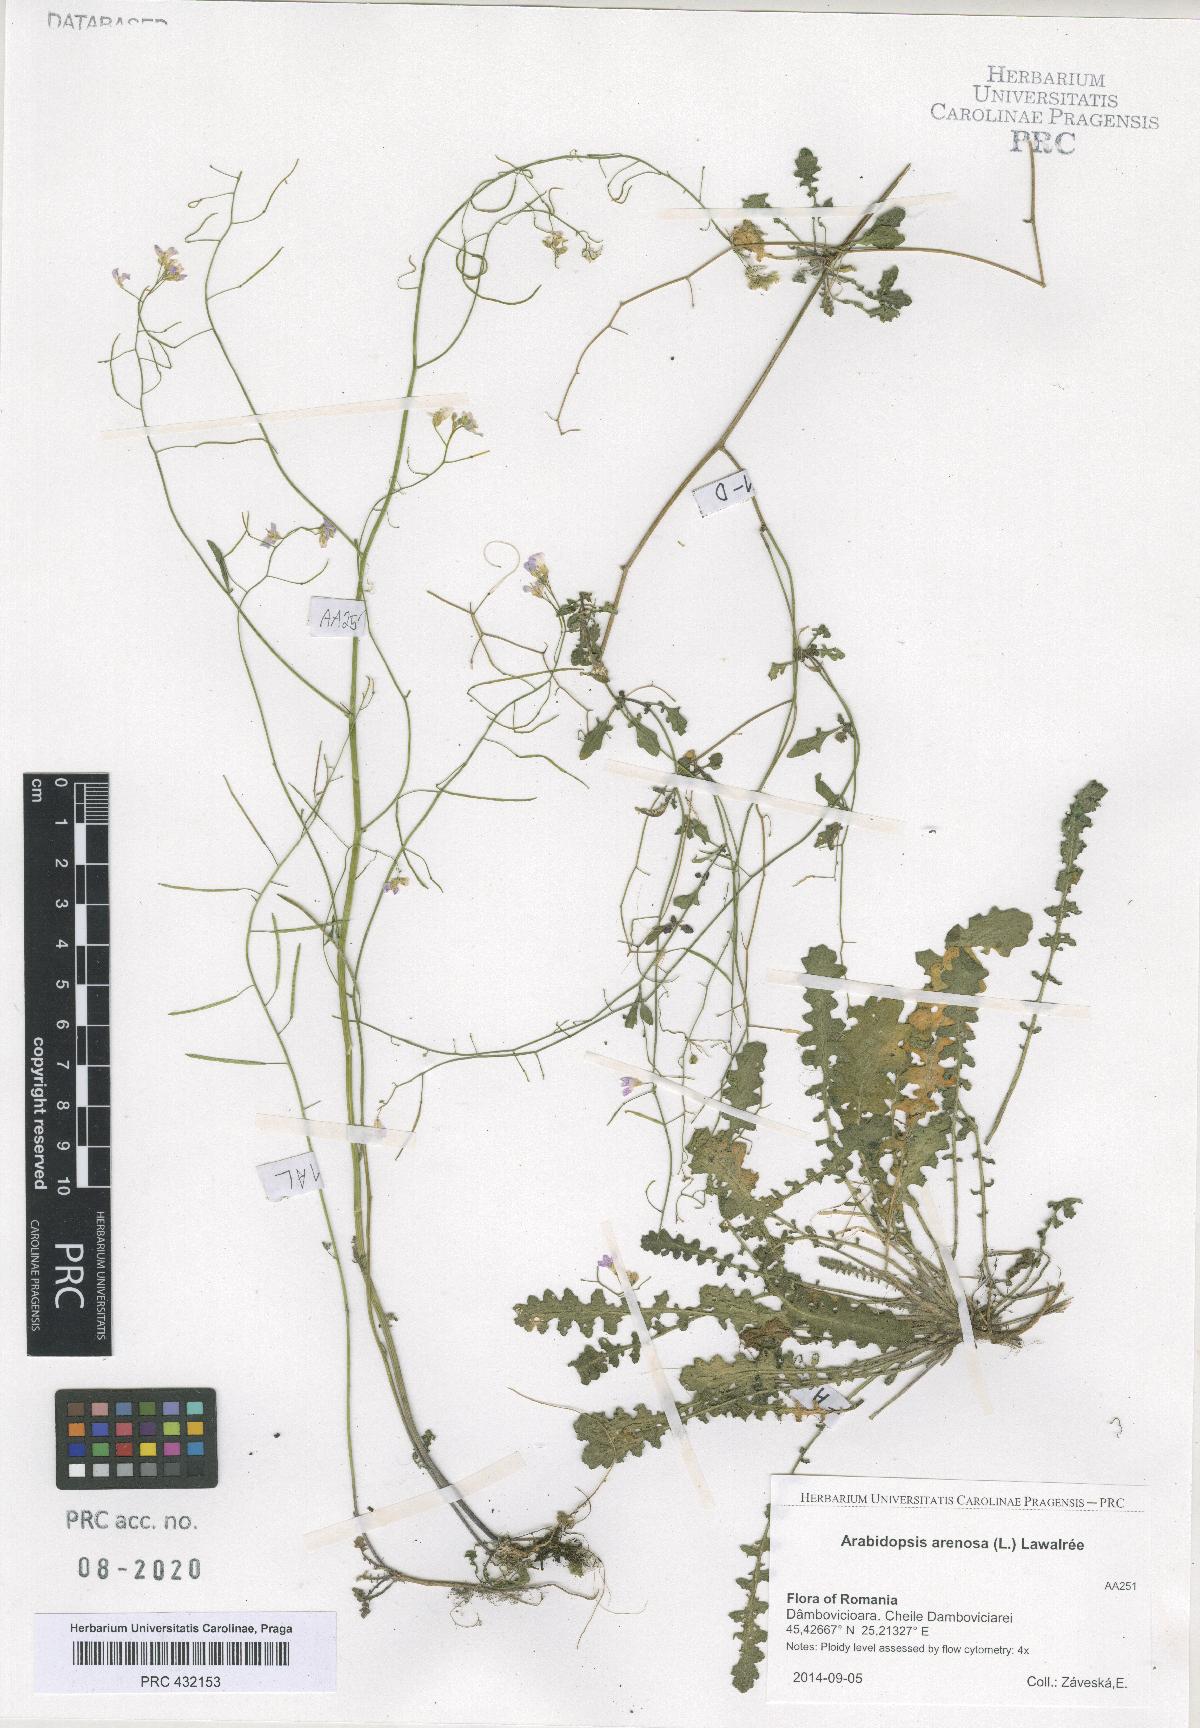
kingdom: Plantae
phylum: Tracheophyta
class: Magnoliopsida
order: Brassicales
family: Brassicaceae
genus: Arabidopsis
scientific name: Arabidopsis arenosa
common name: Sand rock-cress
